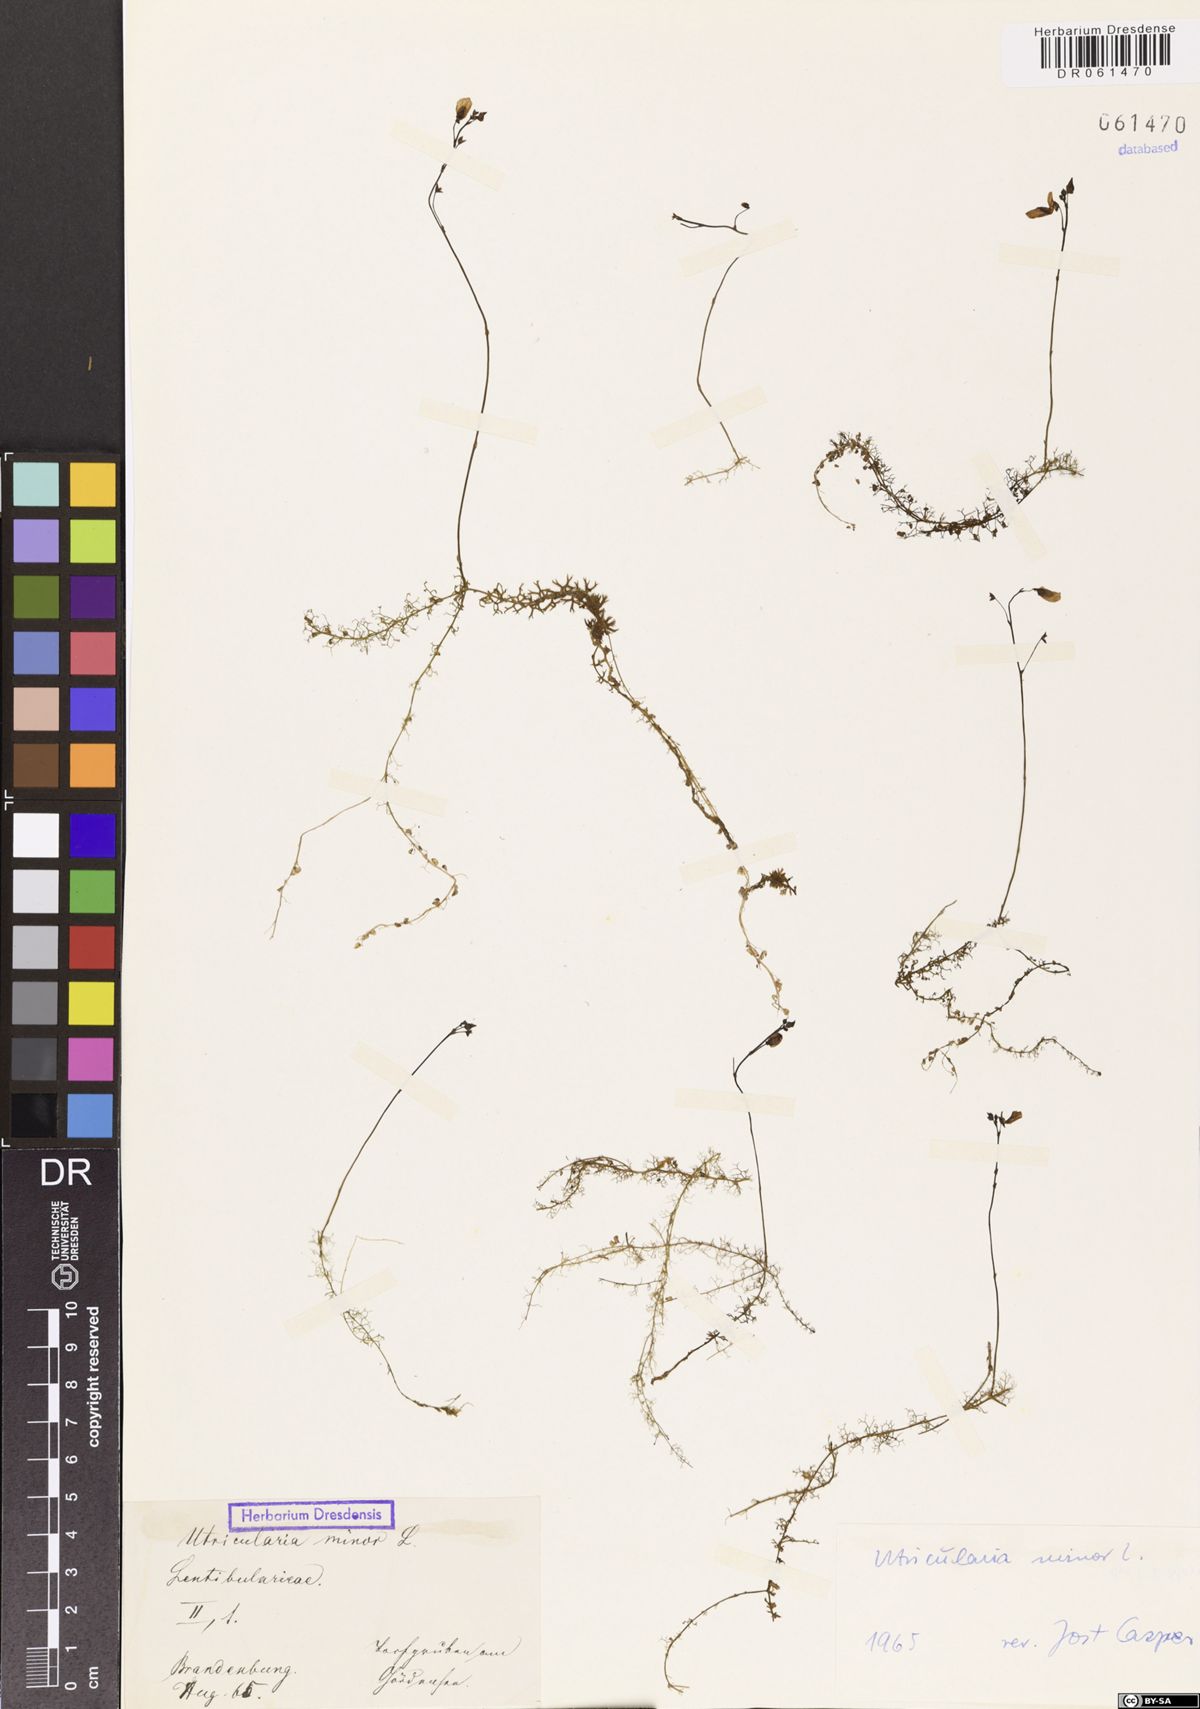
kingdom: Plantae
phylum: Tracheophyta
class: Magnoliopsida
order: Lamiales
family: Lentibulariaceae
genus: Utricularia
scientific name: Utricularia minor
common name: Lesser bladderwort
